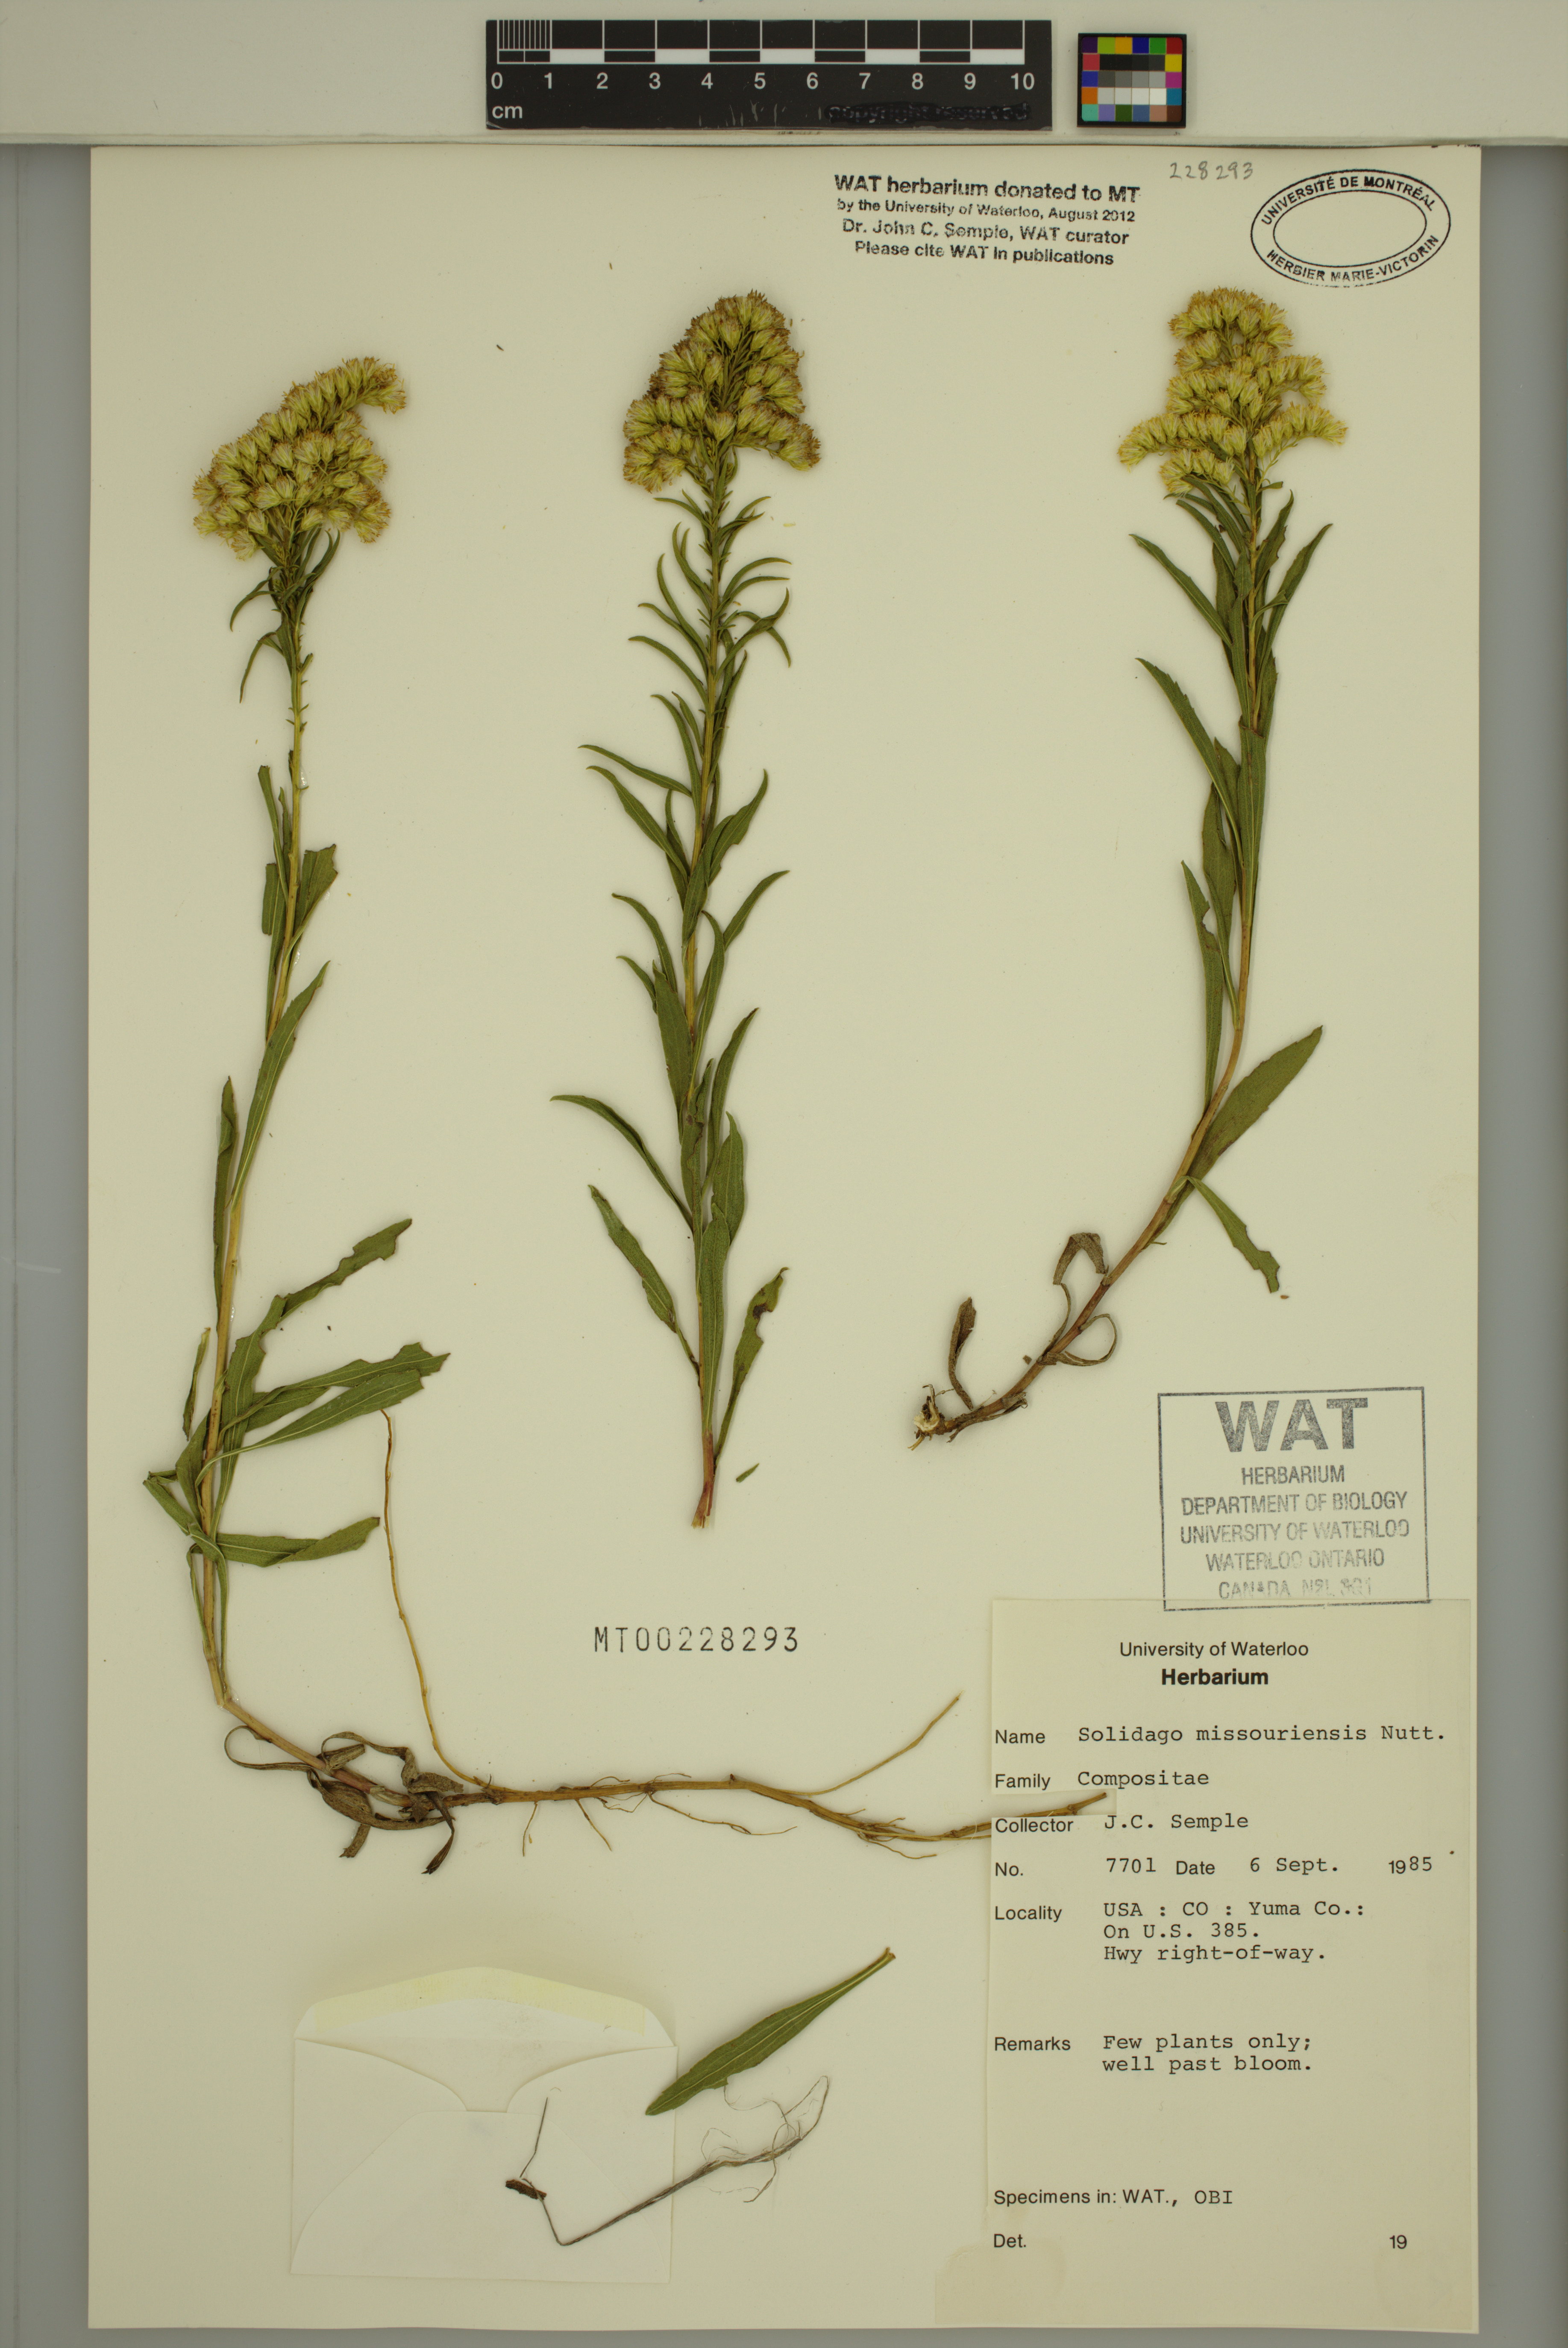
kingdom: Plantae
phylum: Tracheophyta
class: Magnoliopsida
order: Asterales
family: Asteraceae
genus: Solidago
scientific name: Solidago missouriensis
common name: Prairie goldenrod
